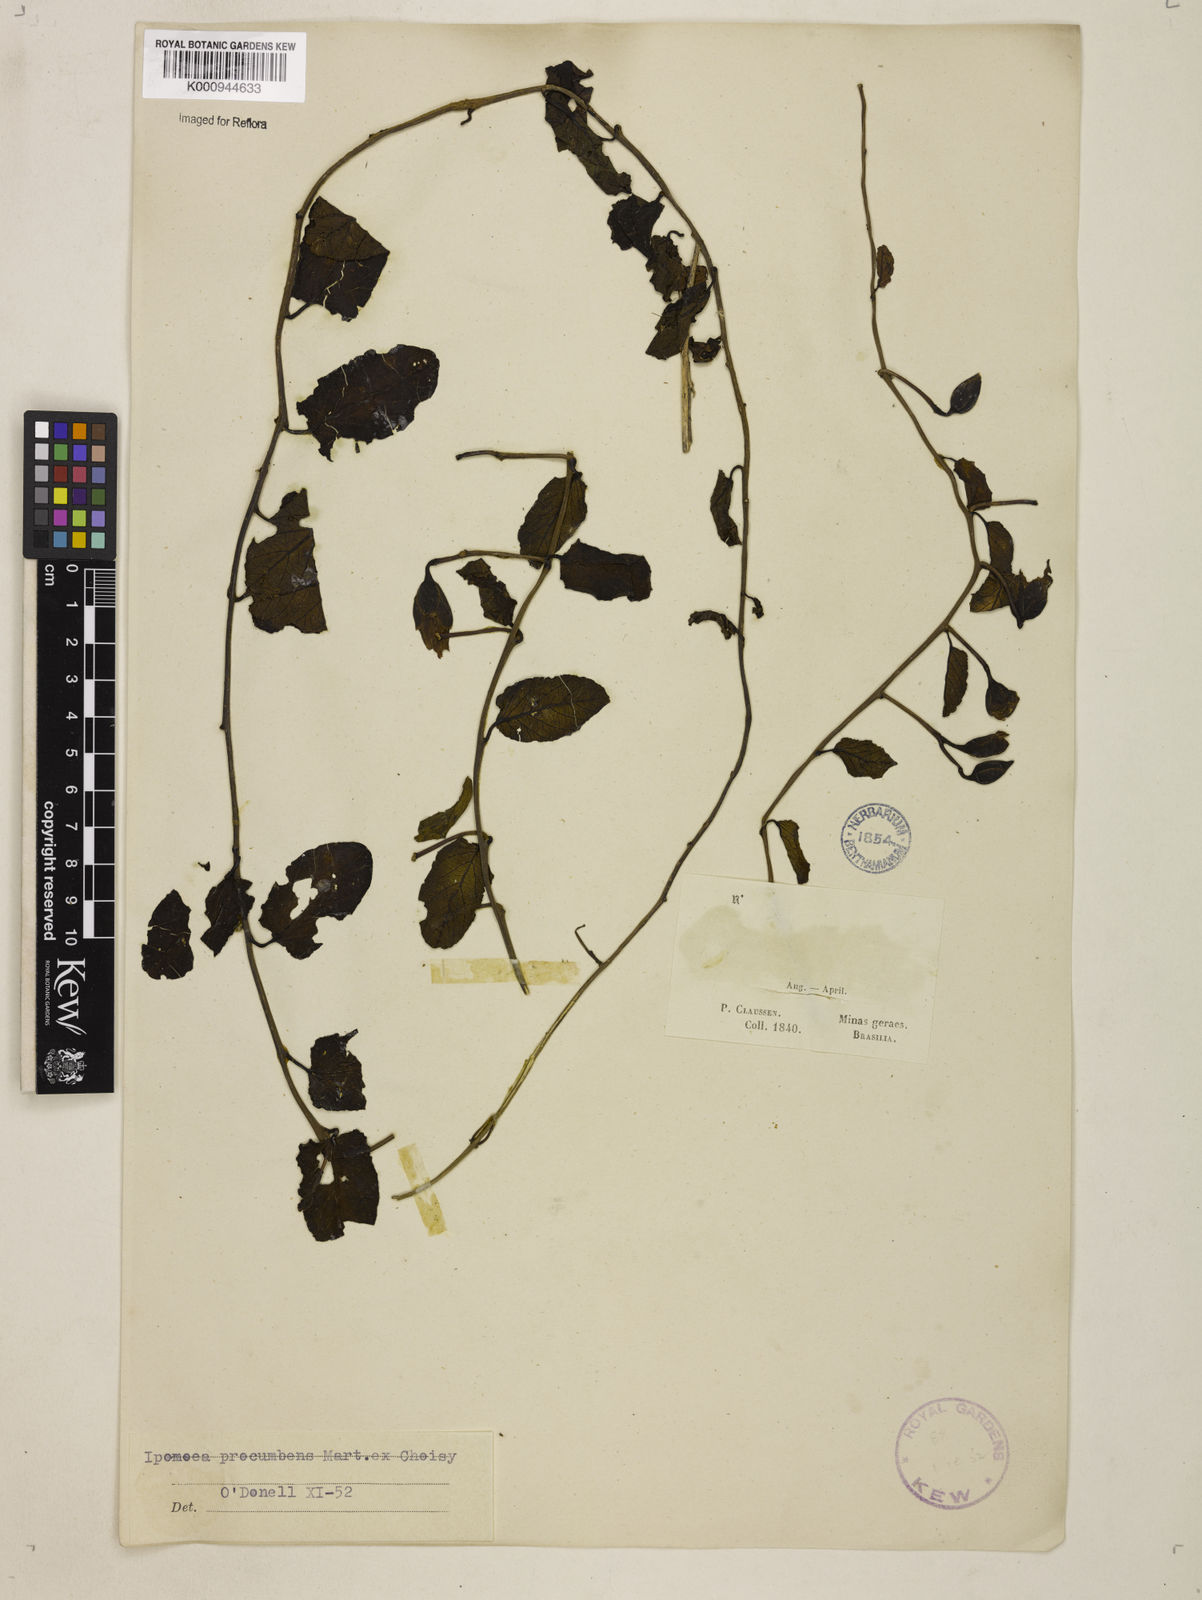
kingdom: Plantae
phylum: Tracheophyta
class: Magnoliopsida
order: Solanales
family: Convolvulaceae
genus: Ipomoea
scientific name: Ipomoea procumbens
